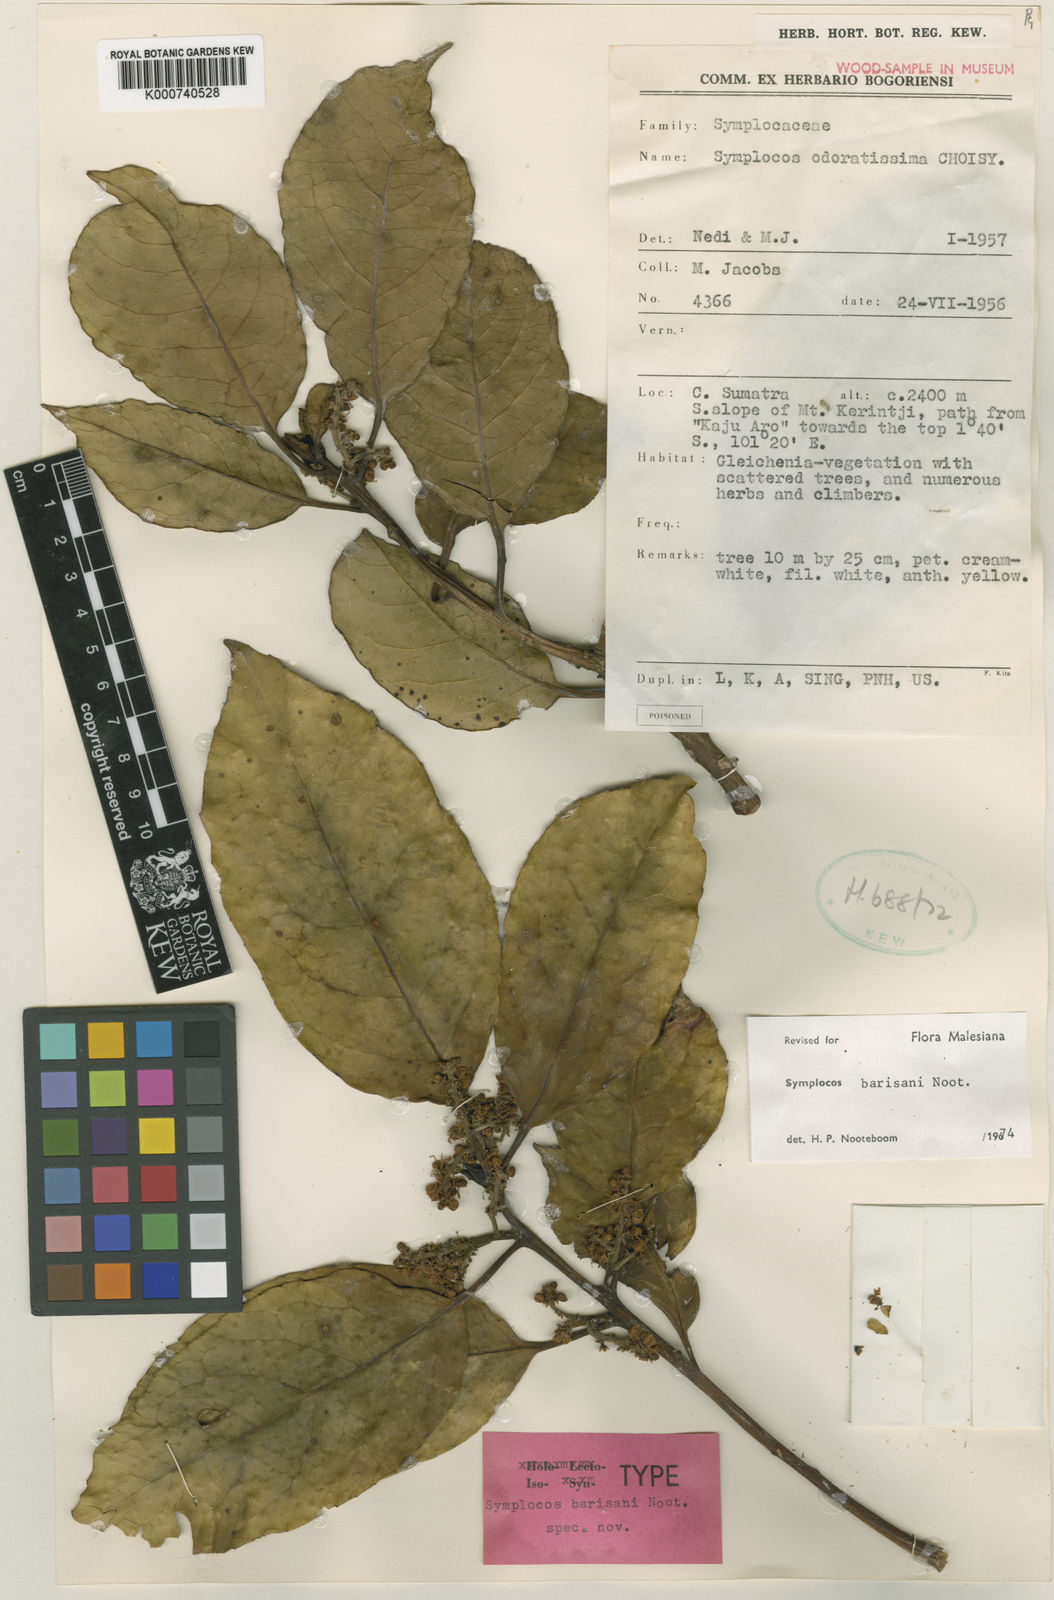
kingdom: Plantae
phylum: Tracheophyta
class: Magnoliopsida
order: Ericales
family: Symplocaceae
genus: Symplocos
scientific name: Symplocos barisanica
